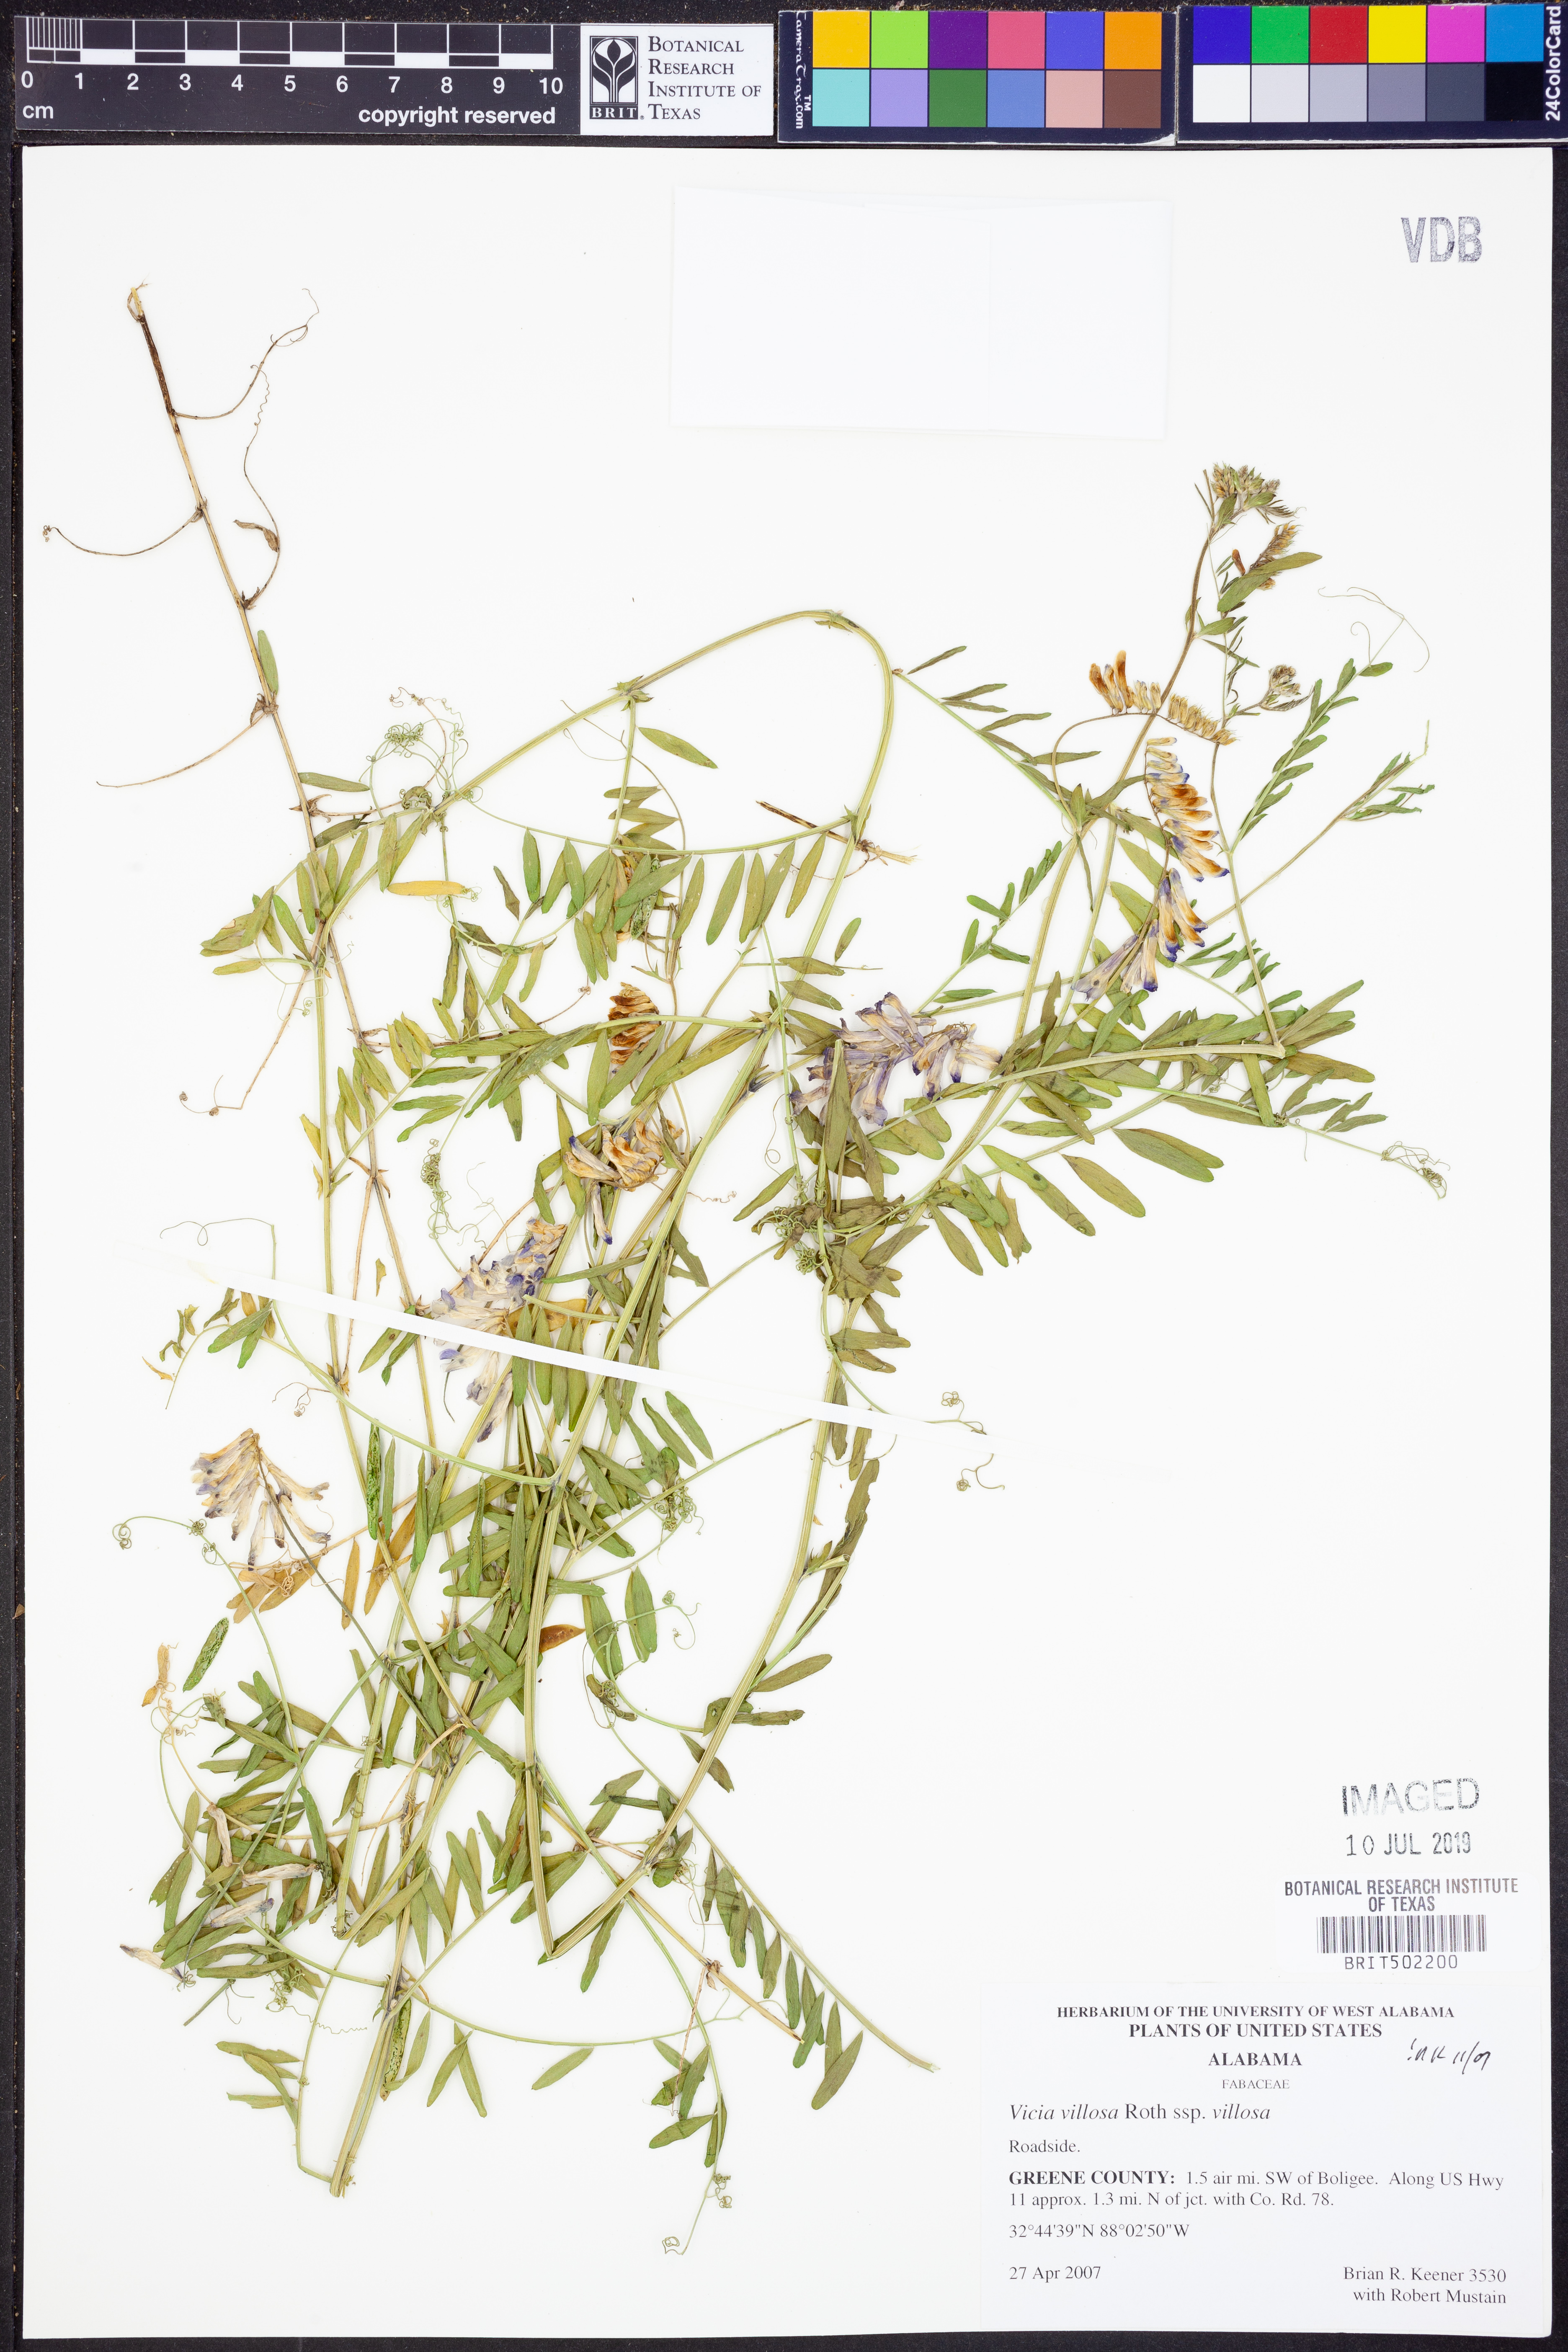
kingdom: Plantae
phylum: Tracheophyta
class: Magnoliopsida
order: Fabales
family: Fabaceae
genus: Vicia
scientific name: Vicia villosa
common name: Fodder vetch
